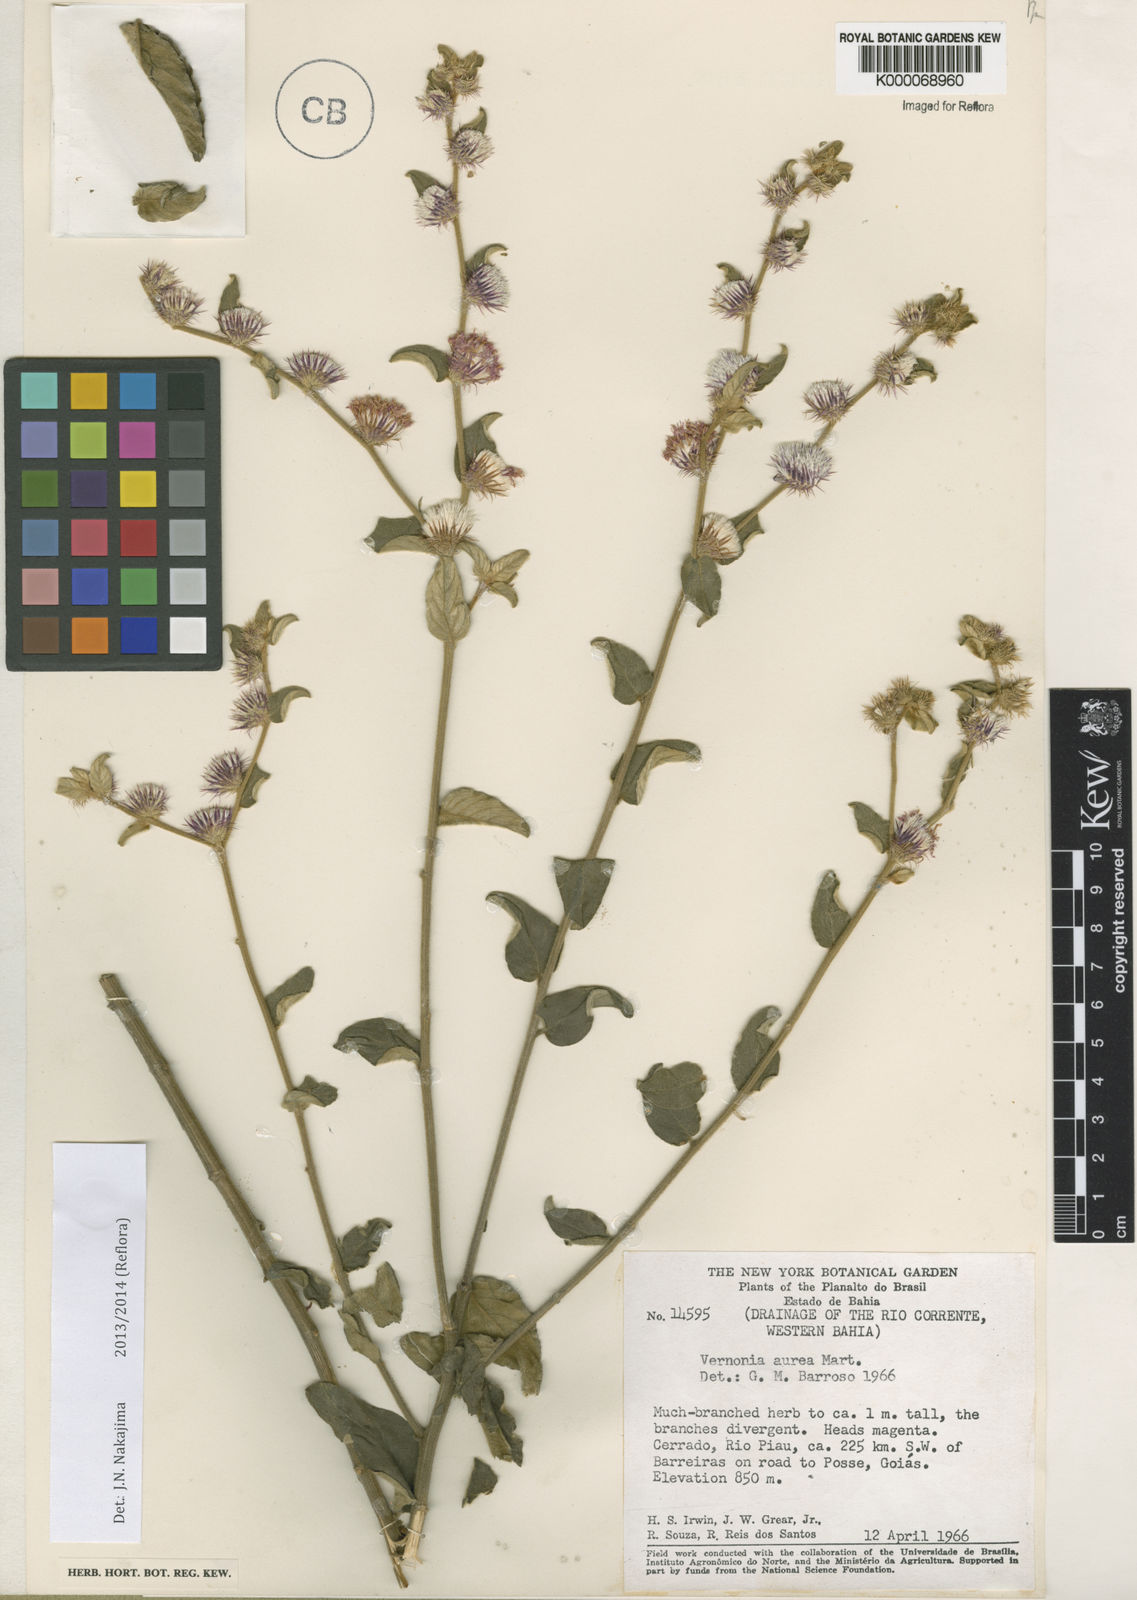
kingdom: Plantae
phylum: Tracheophyta
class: Magnoliopsida
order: Asterales
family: Asteraceae
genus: Vernonia
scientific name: Vernonia
